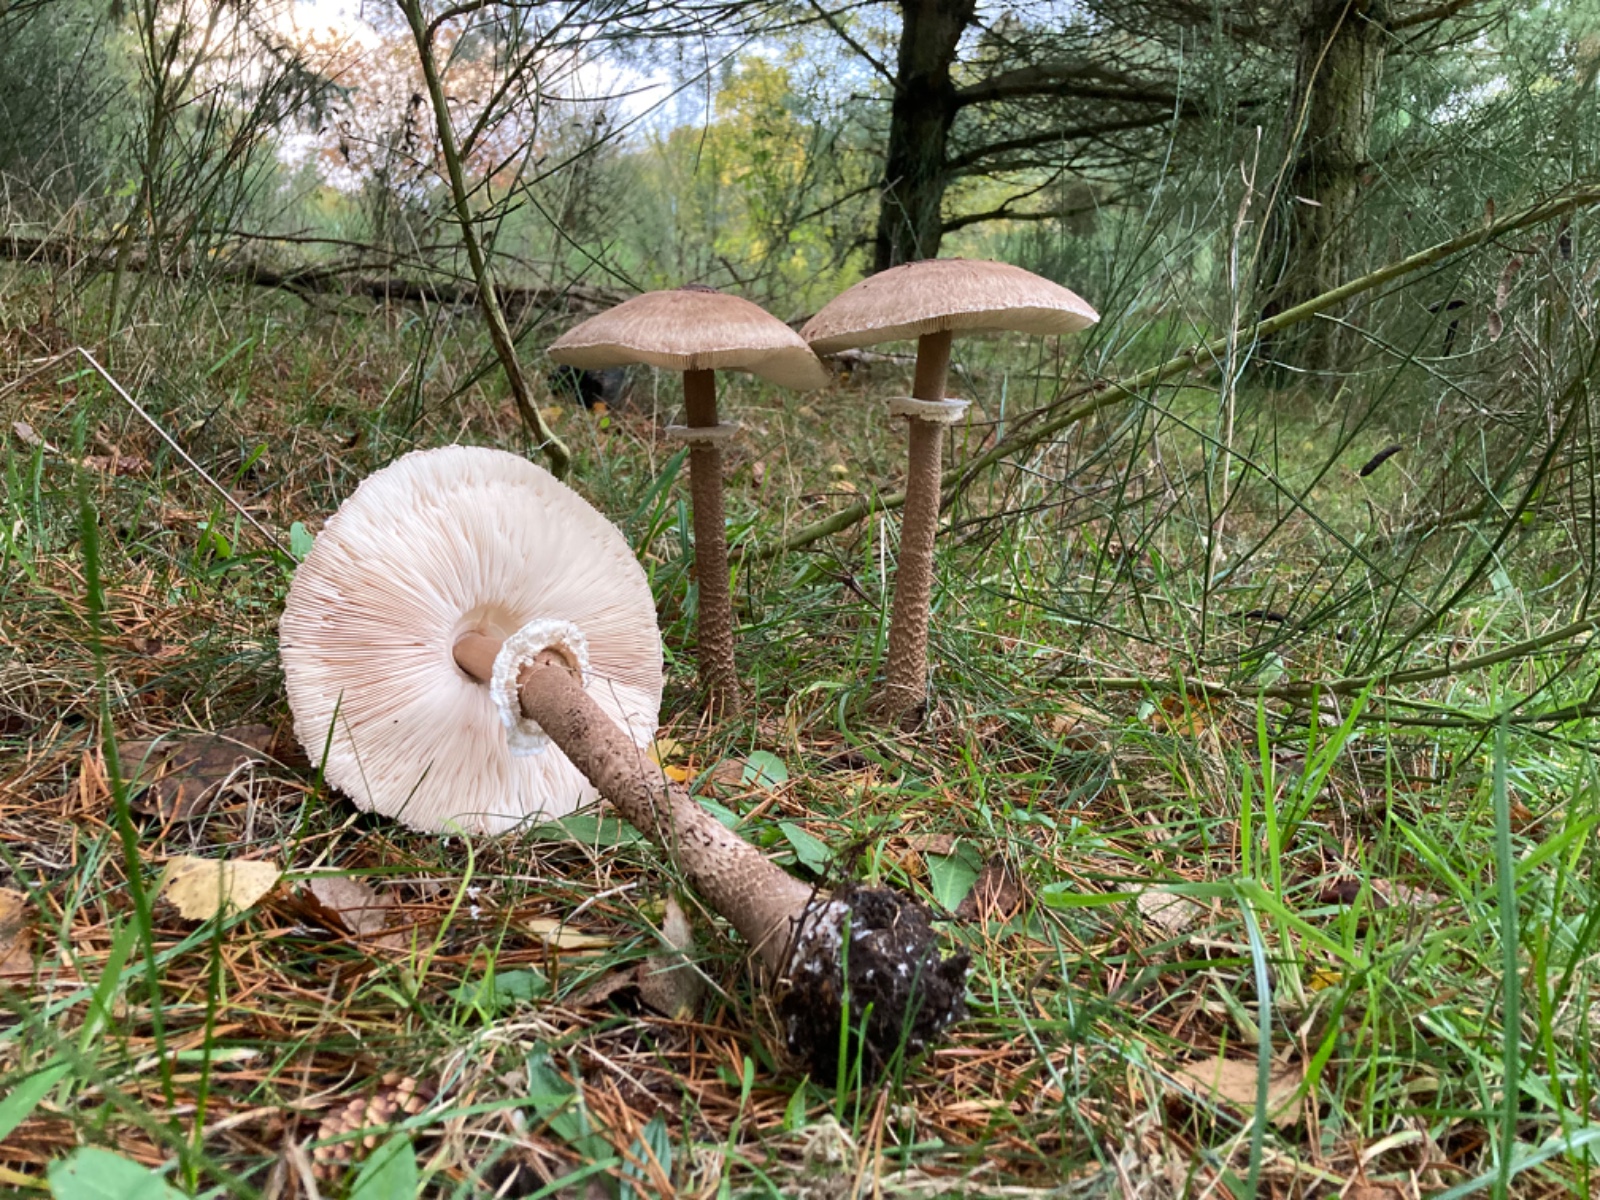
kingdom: Fungi
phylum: Basidiomycota
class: Agaricomycetes
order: Agaricales
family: Agaricaceae
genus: Macrolepiota
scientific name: Macrolepiota procera
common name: stor kæmpeparasolhat
